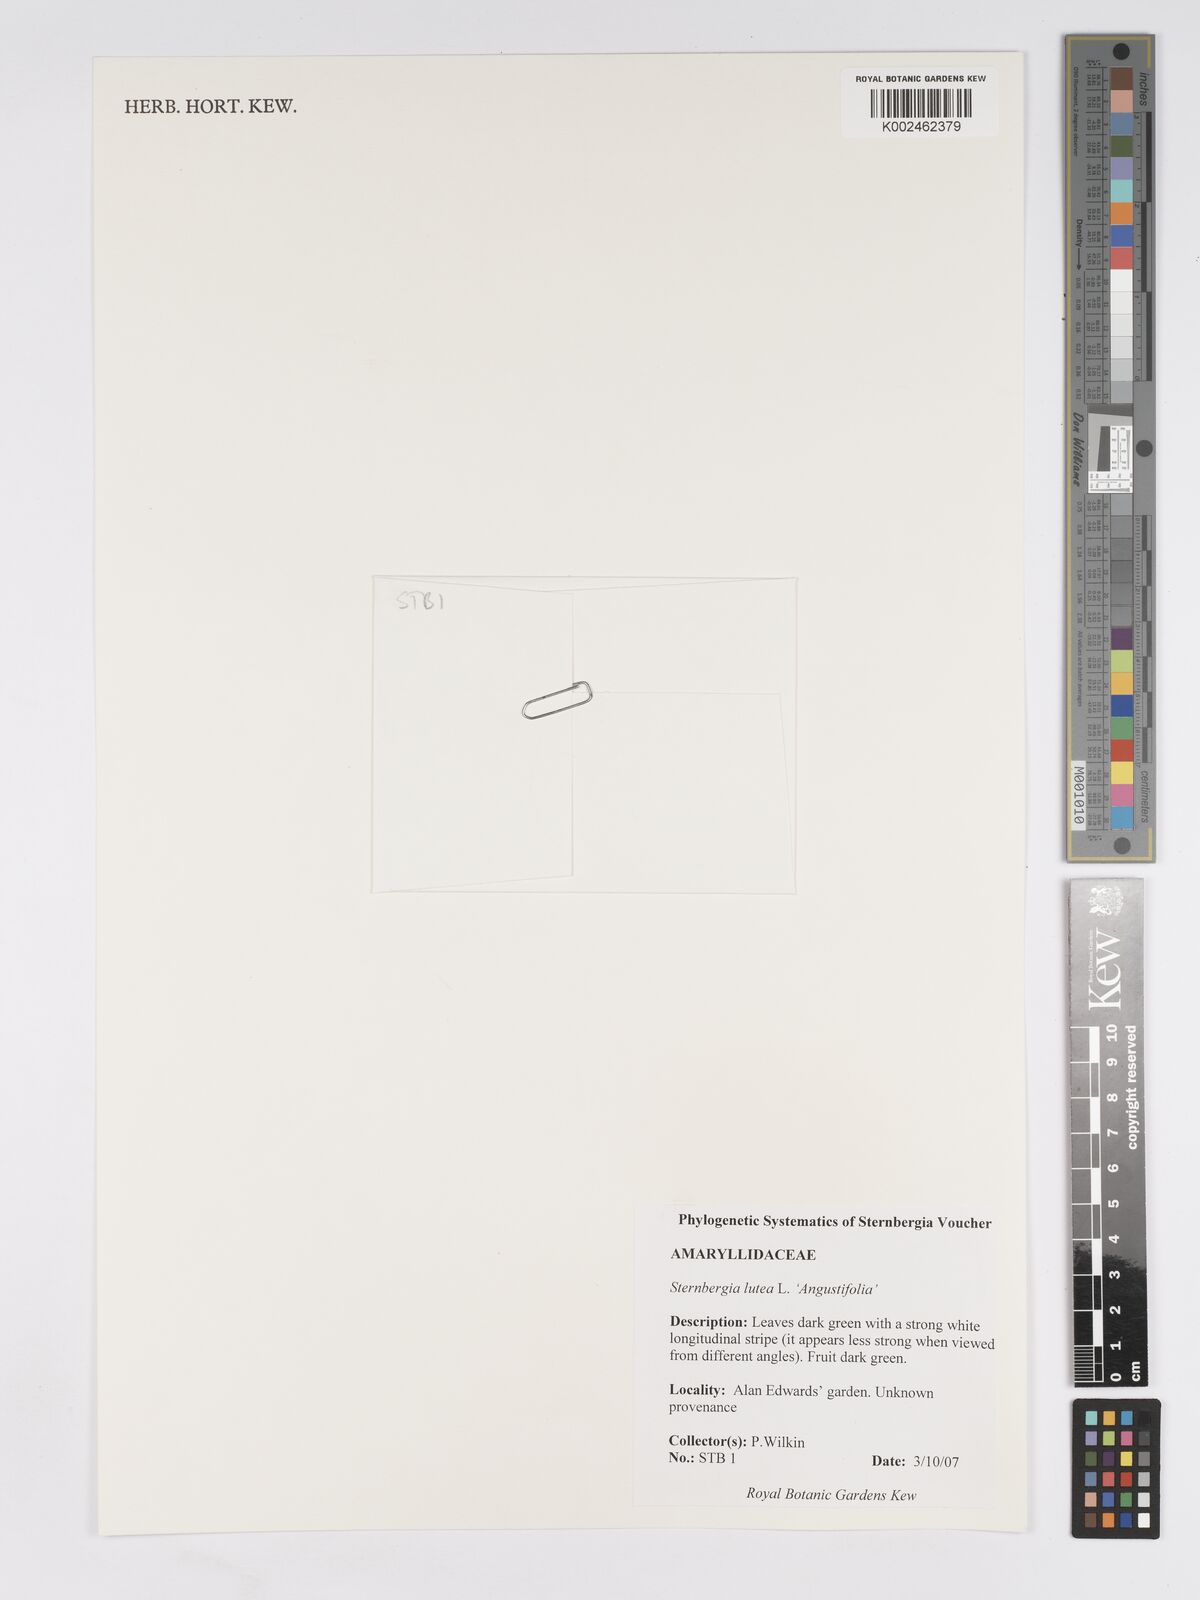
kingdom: Plantae
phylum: Tracheophyta
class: Liliopsida
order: Asparagales
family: Amaryllidaceae
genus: Sternbergia
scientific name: Sternbergia lutea
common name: Winter daffodil
